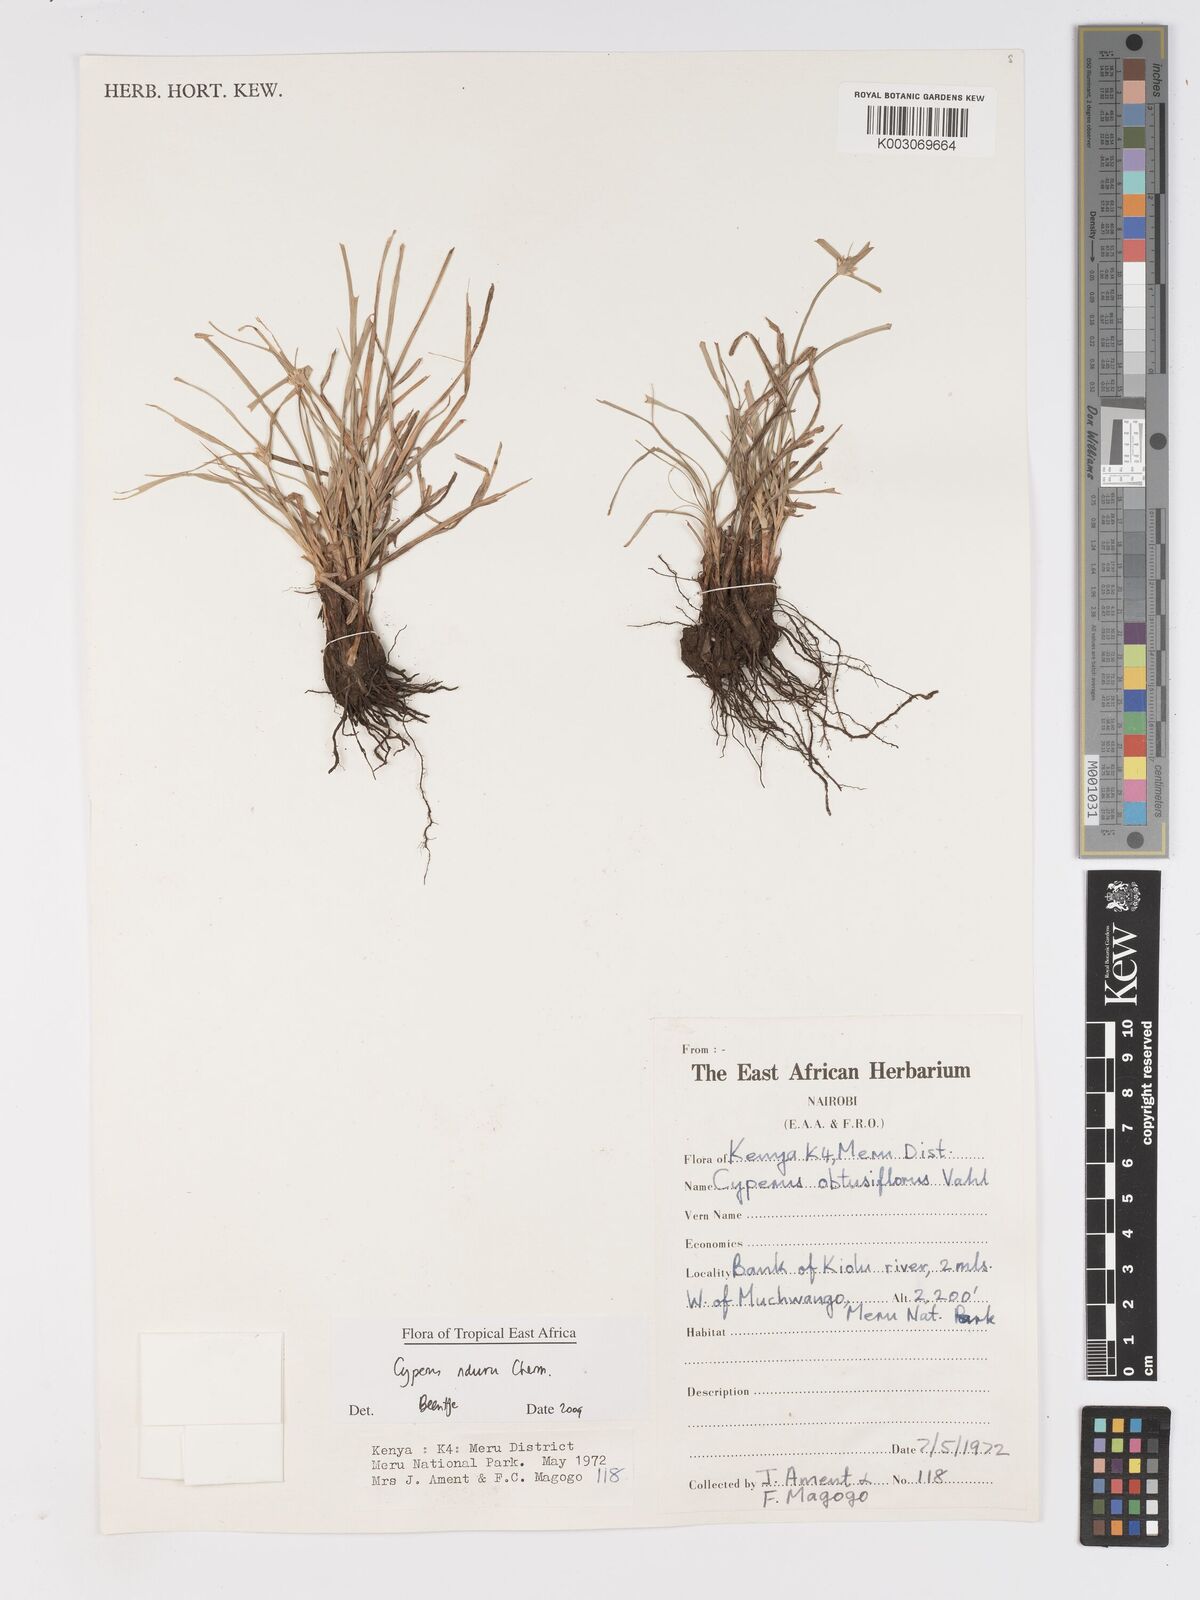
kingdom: Plantae
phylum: Tracheophyta
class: Liliopsida
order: Poales
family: Cyperaceae
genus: Cyperus
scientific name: Cyperus nduru
